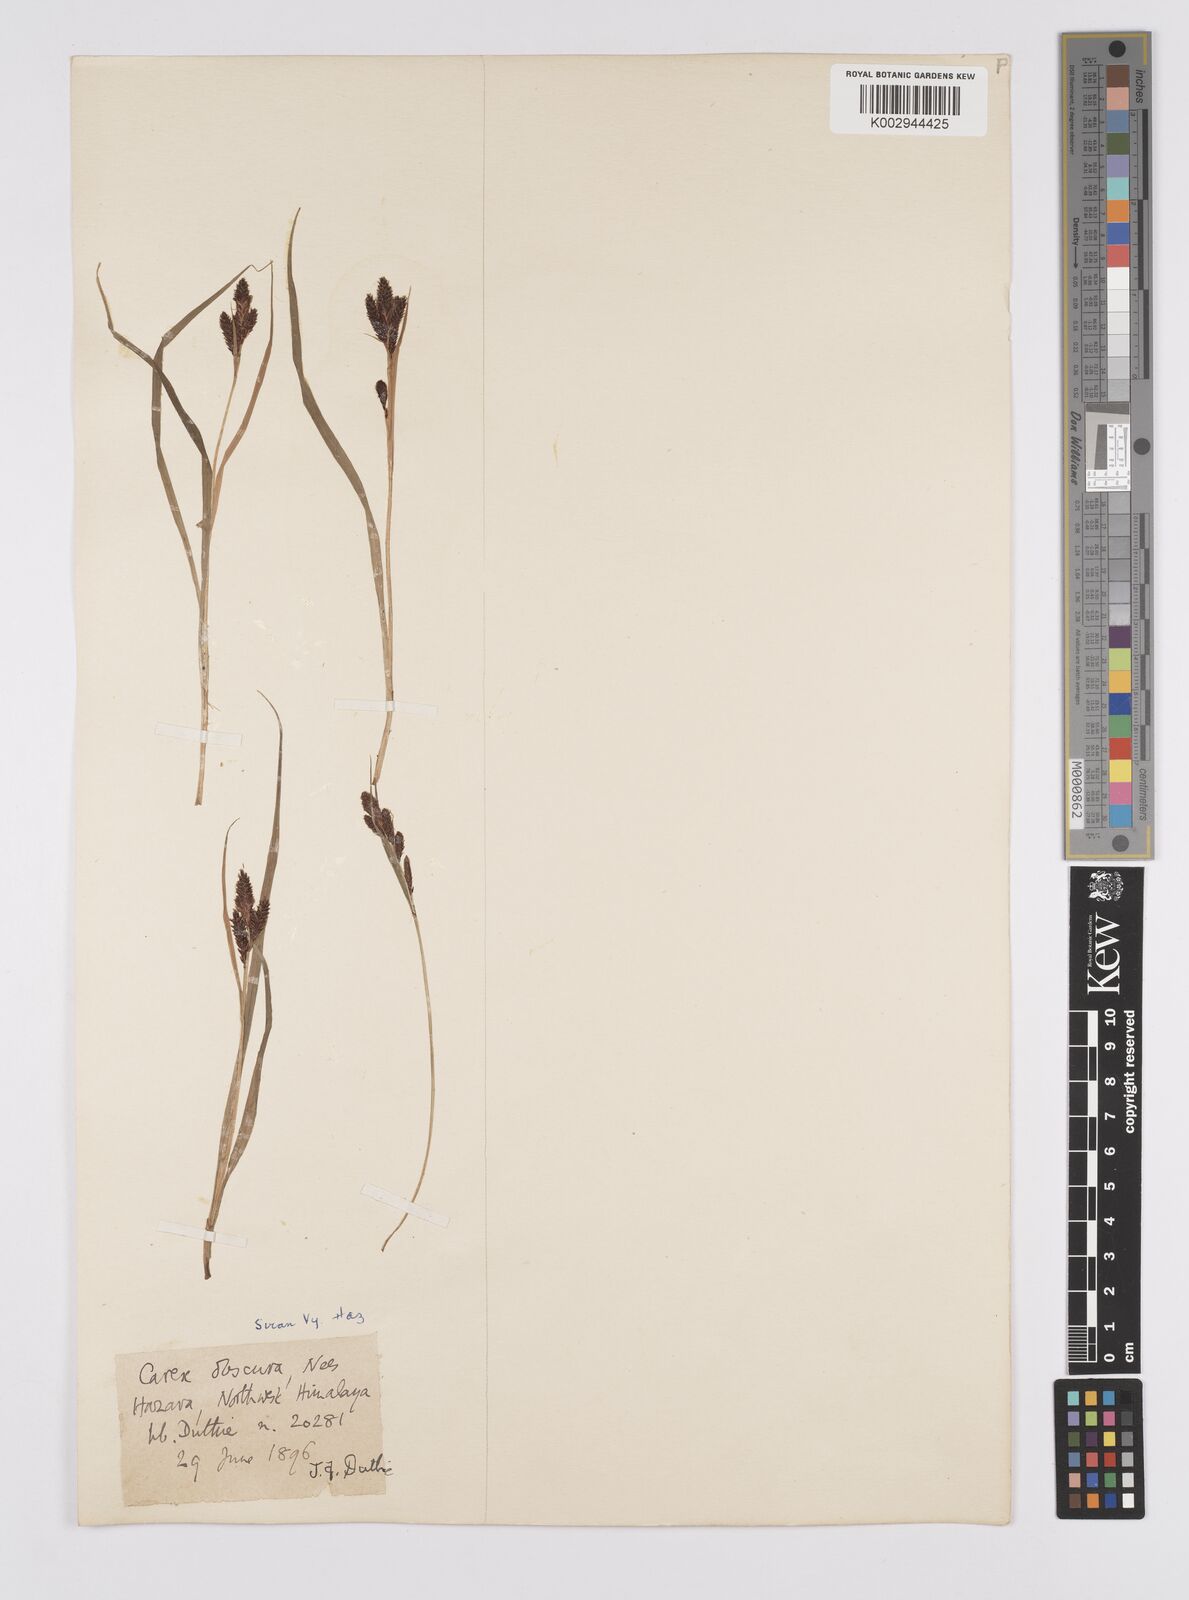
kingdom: Plantae
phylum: Tracheophyta
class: Liliopsida
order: Poales
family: Cyperaceae
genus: Carex
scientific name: Carex obscura
